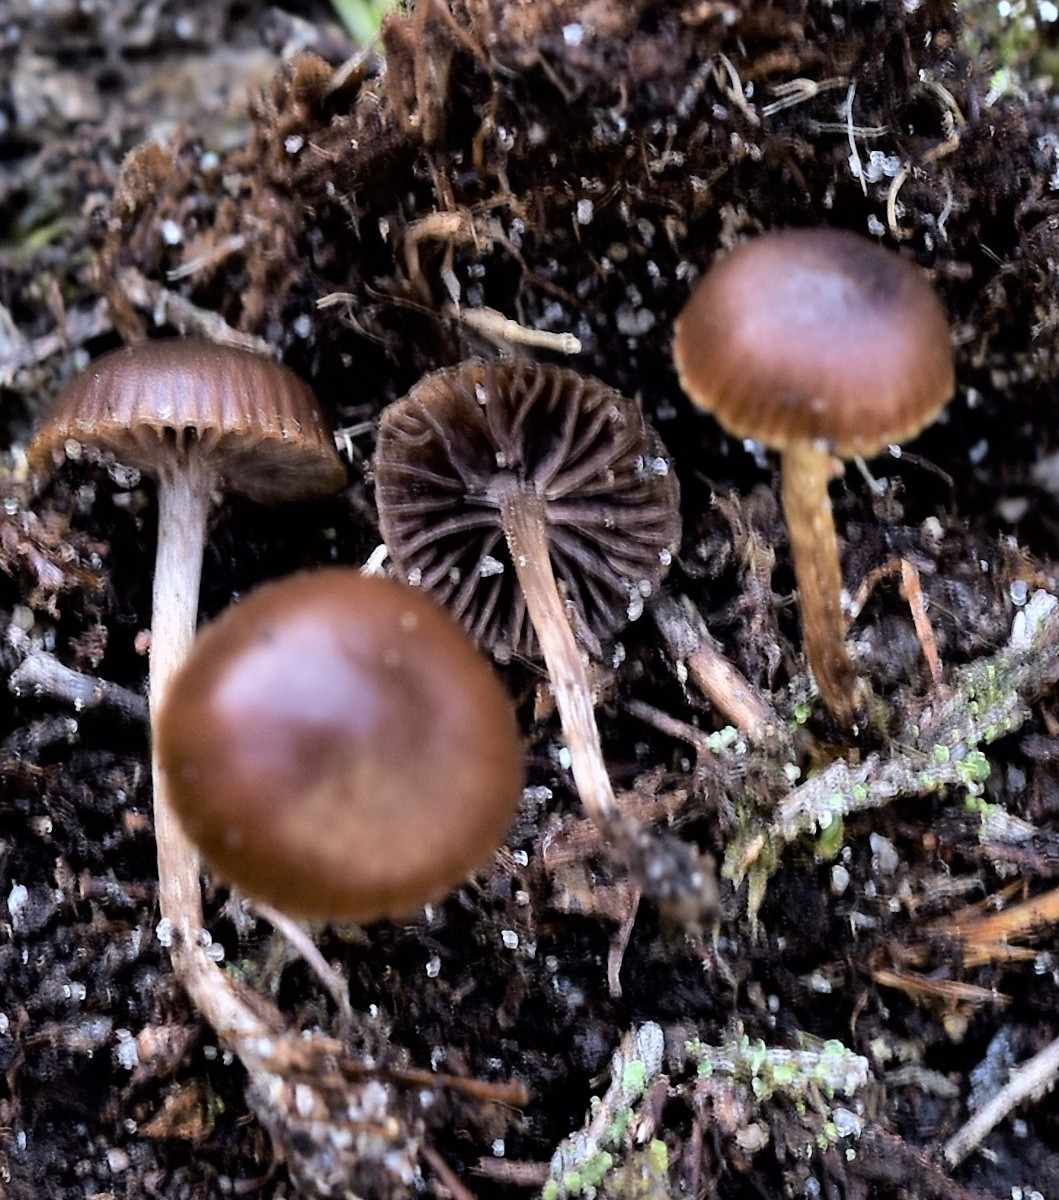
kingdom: Fungi
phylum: Basidiomycota
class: Agaricomycetes
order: Agaricales
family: Strophariaceae
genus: Deconica
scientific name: Deconica montana
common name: rødbrun stråhat
